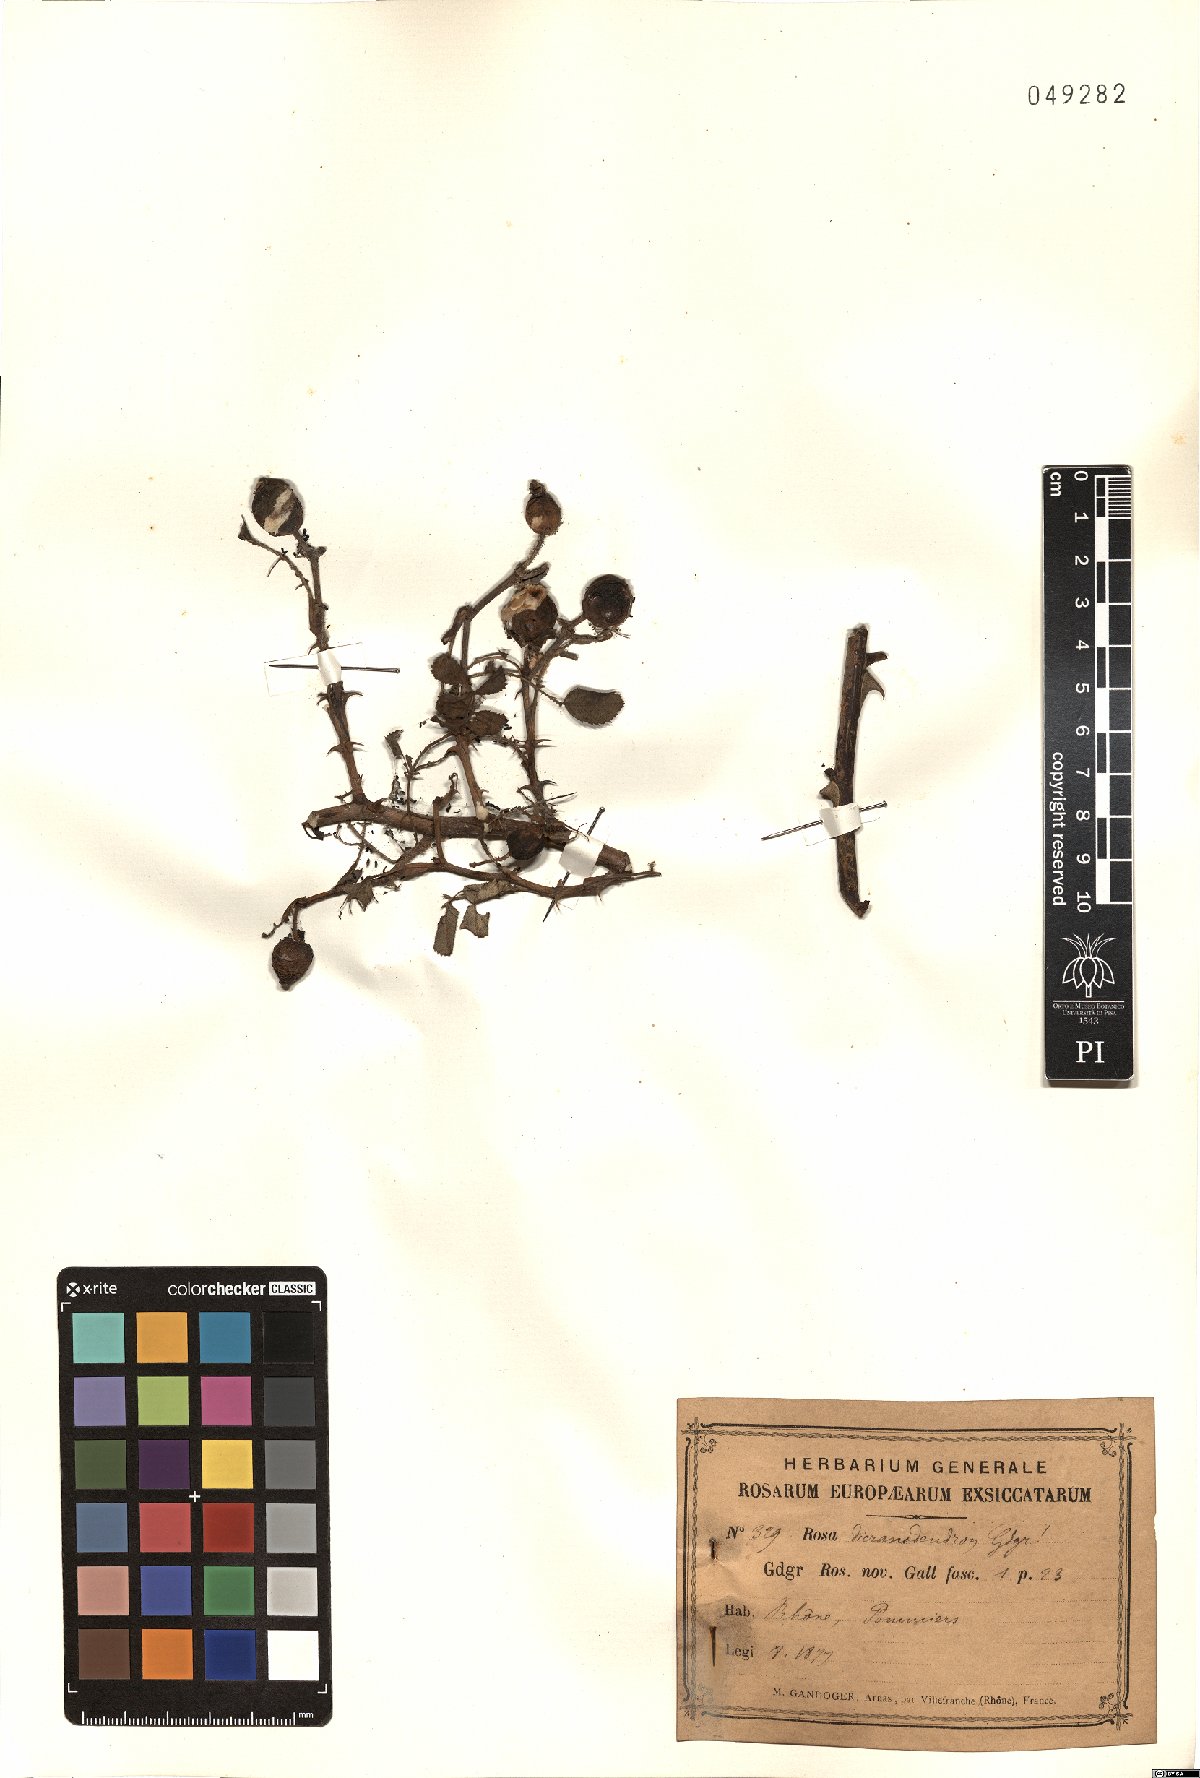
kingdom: Plantae
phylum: Tracheophyta
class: Magnoliopsida
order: Rosales
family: Rosaceae
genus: Rosa
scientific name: Rosa dicranodendron
